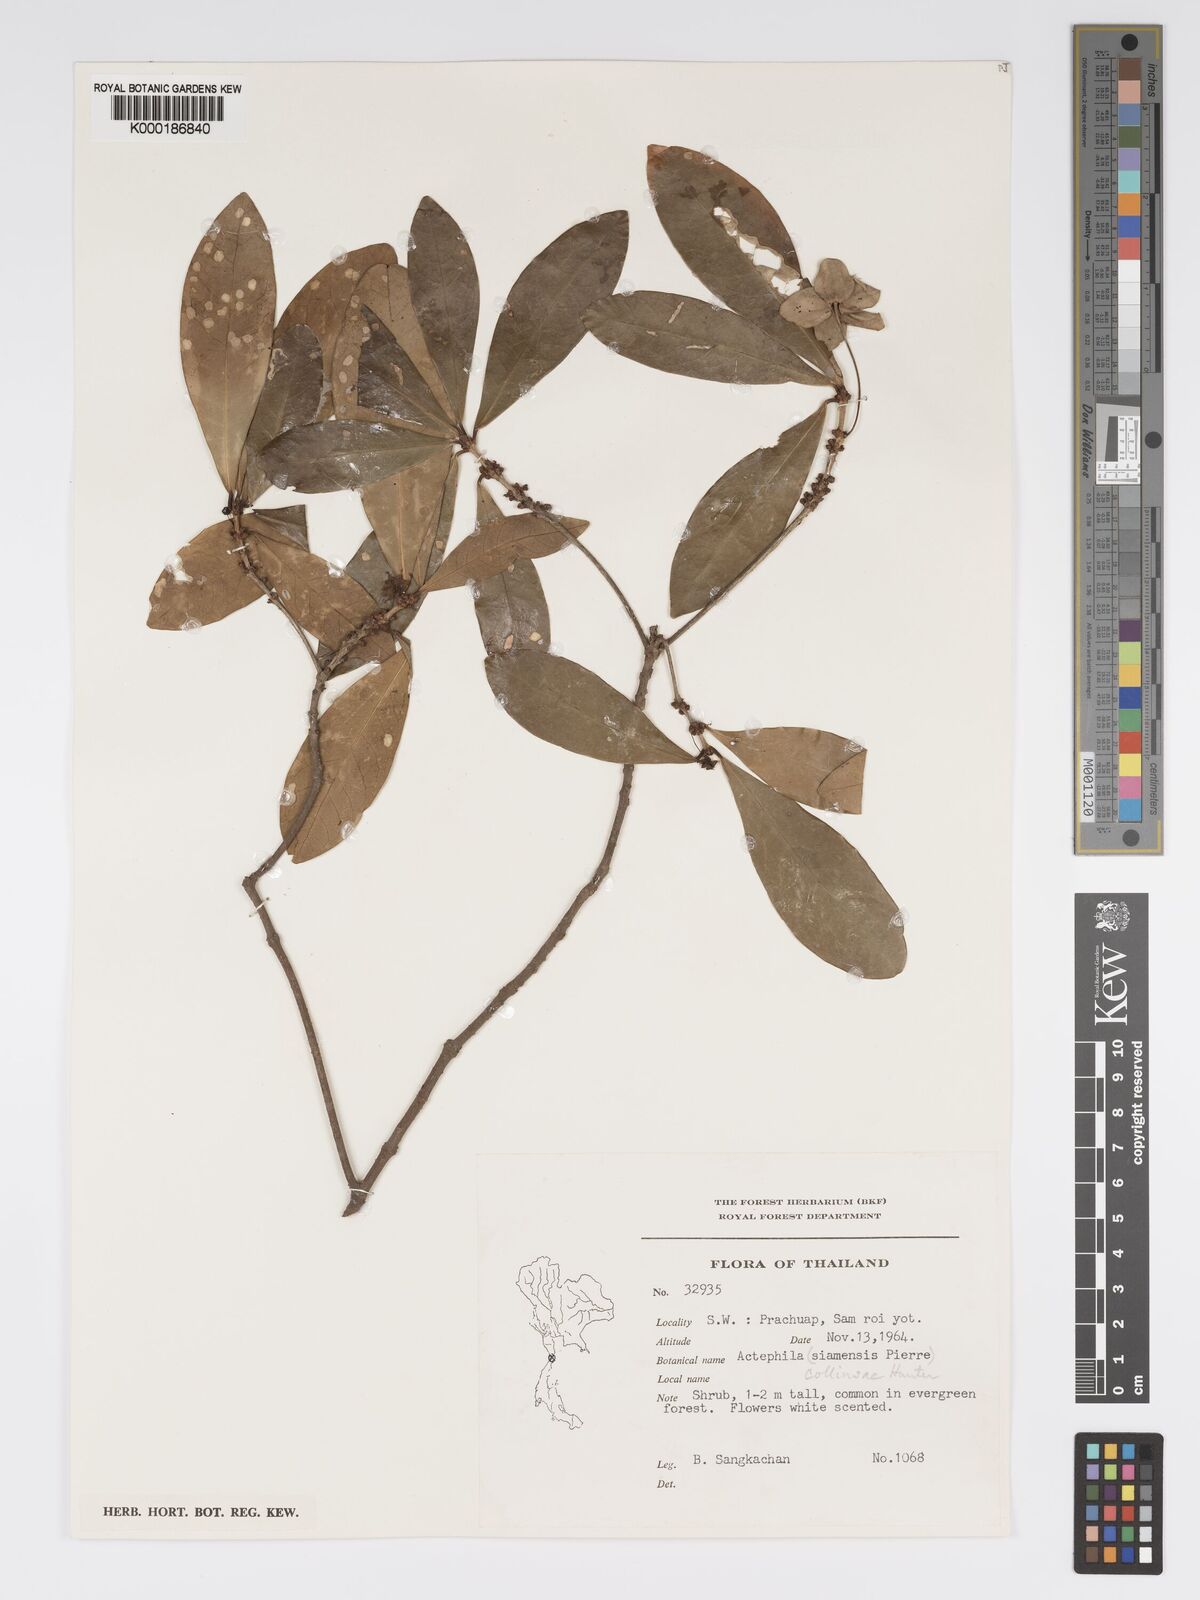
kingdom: Plantae
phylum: Tracheophyta
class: Magnoliopsida
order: Malpighiales
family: Phyllanthaceae
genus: Actephila
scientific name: Actephila collinsiae
